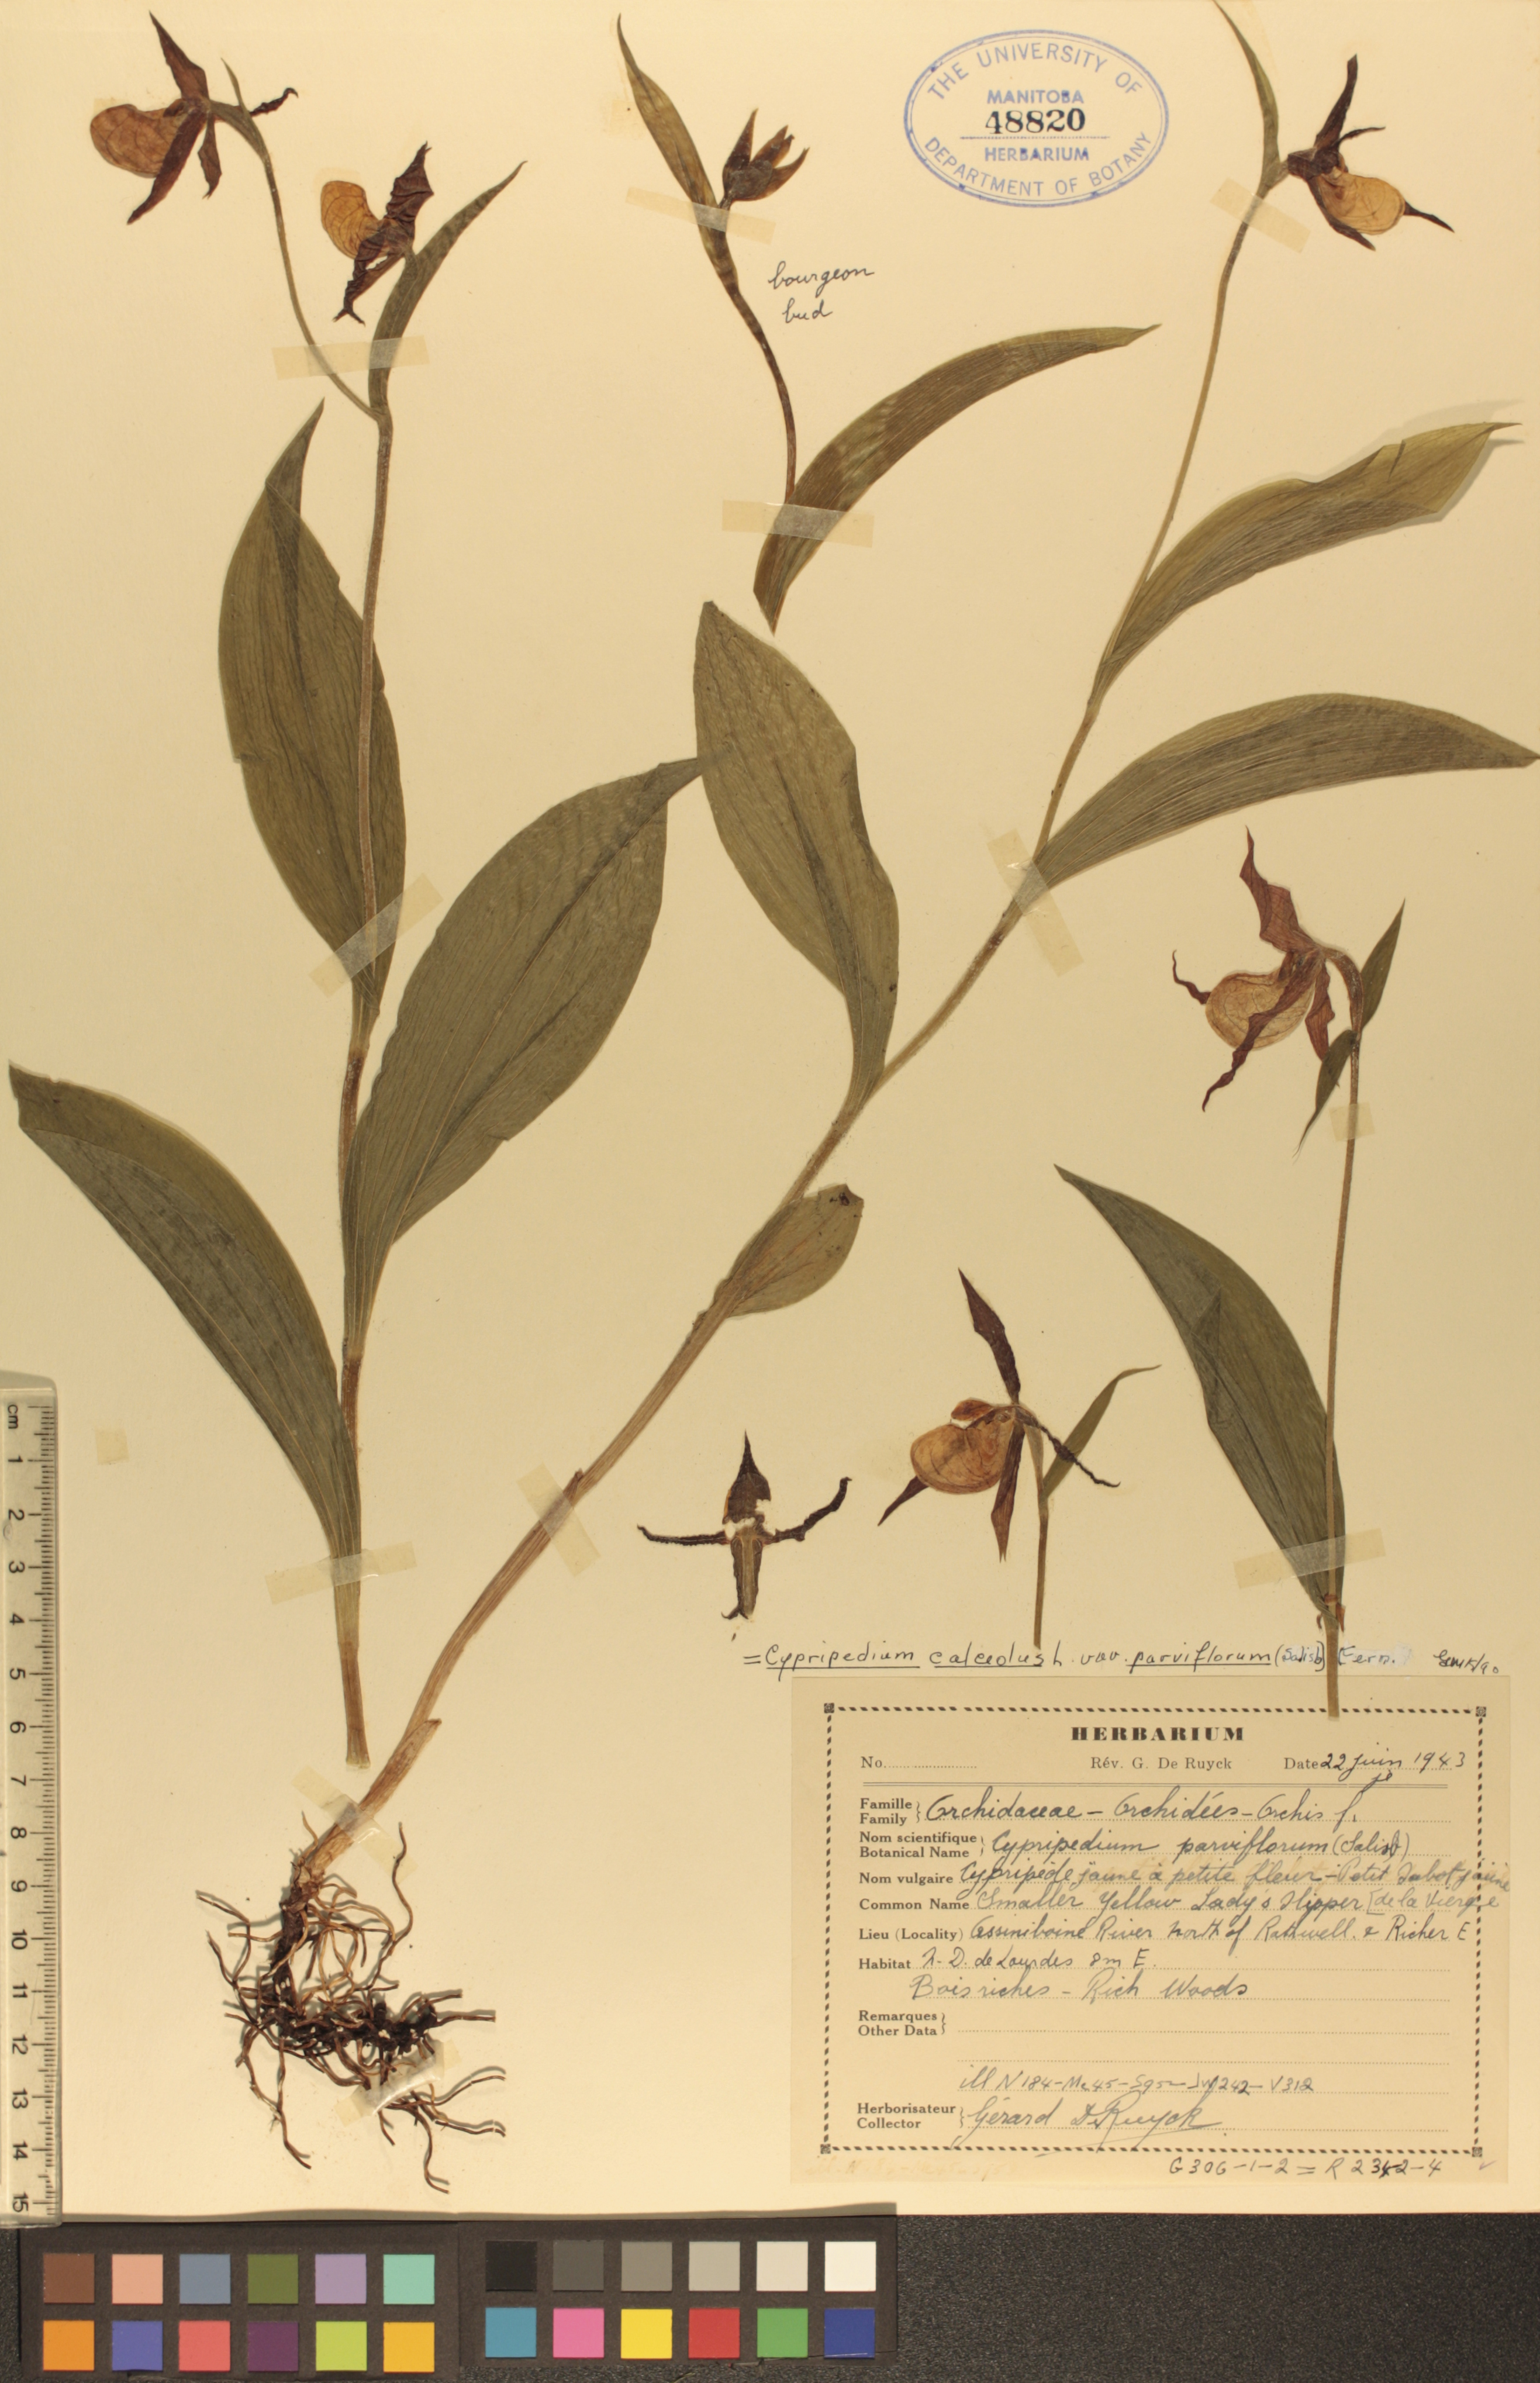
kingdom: Plantae
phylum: Tracheophyta
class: Liliopsida
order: Asparagales
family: Orchidaceae
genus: Cypripedium
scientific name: Cypripedium parviflorum
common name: American yellow lady's-slipper
